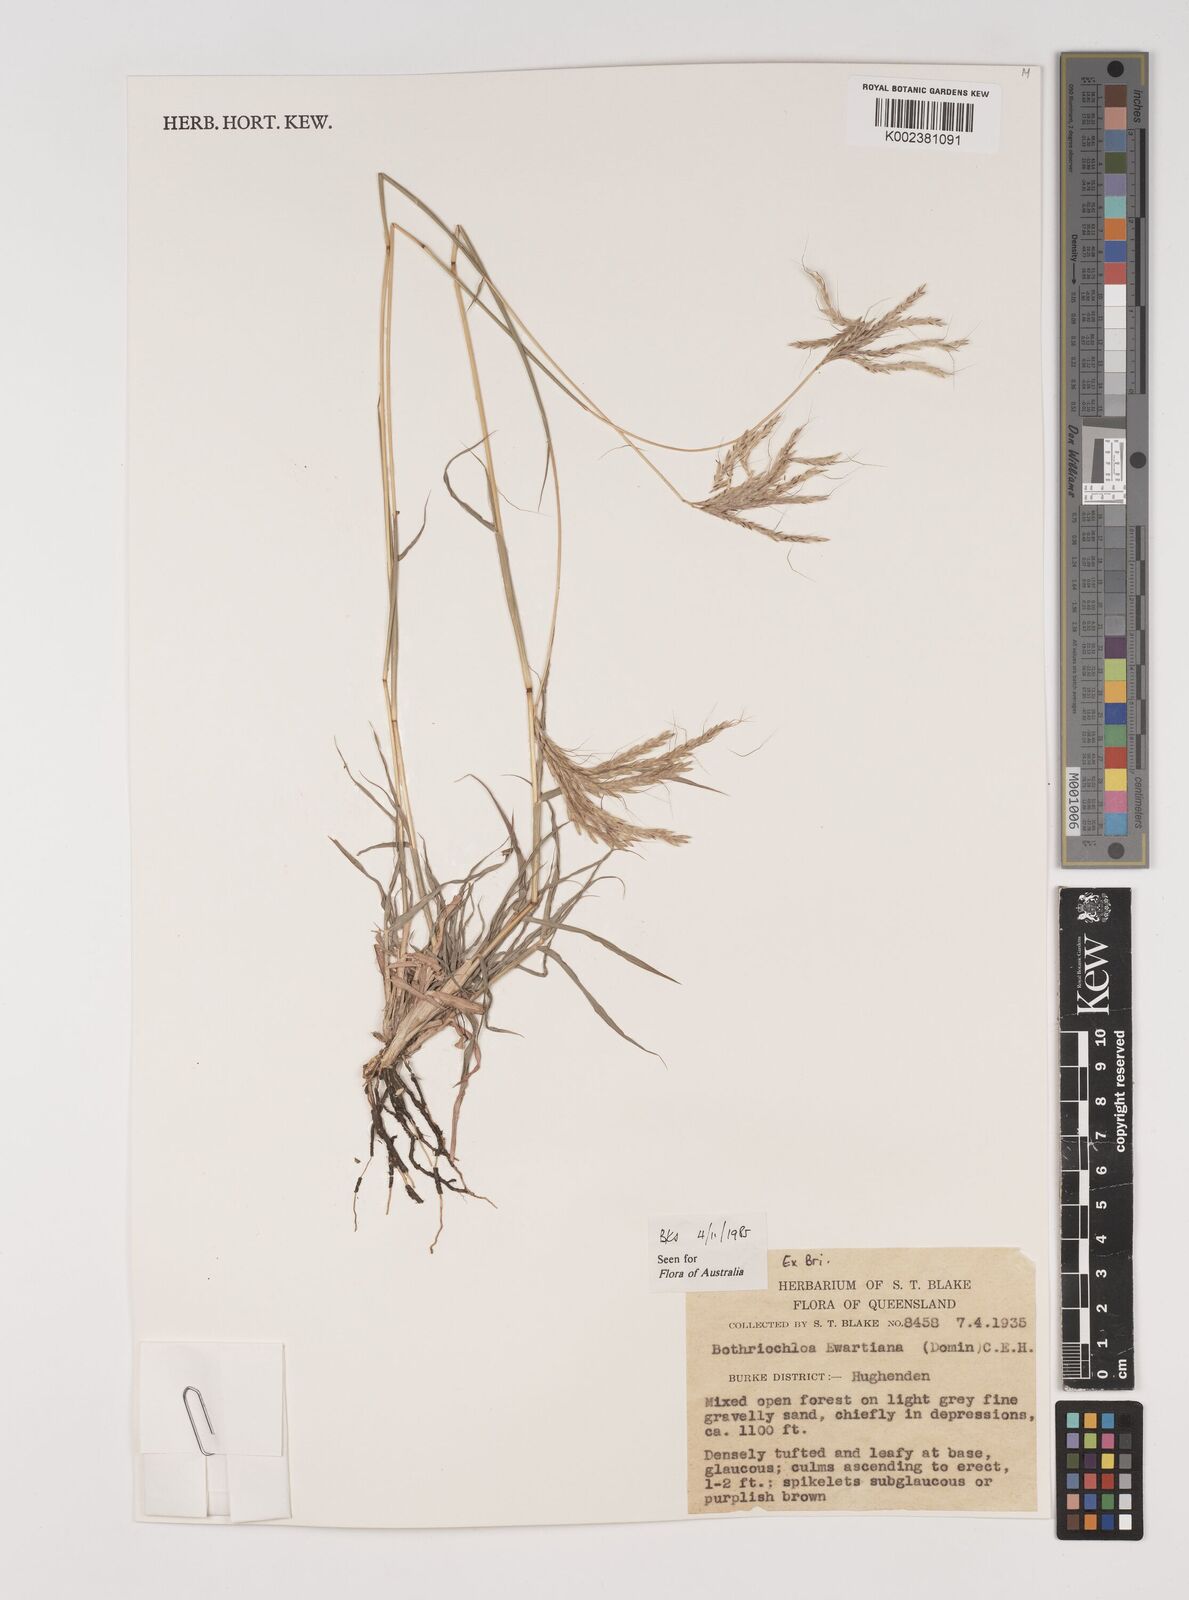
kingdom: Plantae
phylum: Tracheophyta
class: Liliopsida
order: Poales
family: Poaceae
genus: Bothriochloa
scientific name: Bothriochloa ewartiana
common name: Desert-bluegrass
